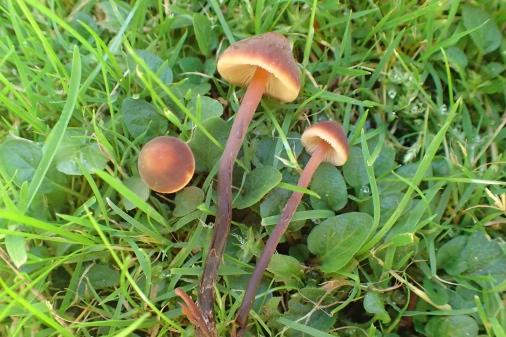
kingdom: Fungi
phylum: Basidiomycota
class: Agaricomycetes
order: Agaricales
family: Macrocystidiaceae
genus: Macrocystidia
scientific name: Macrocystidia cucumis
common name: agurkehat
